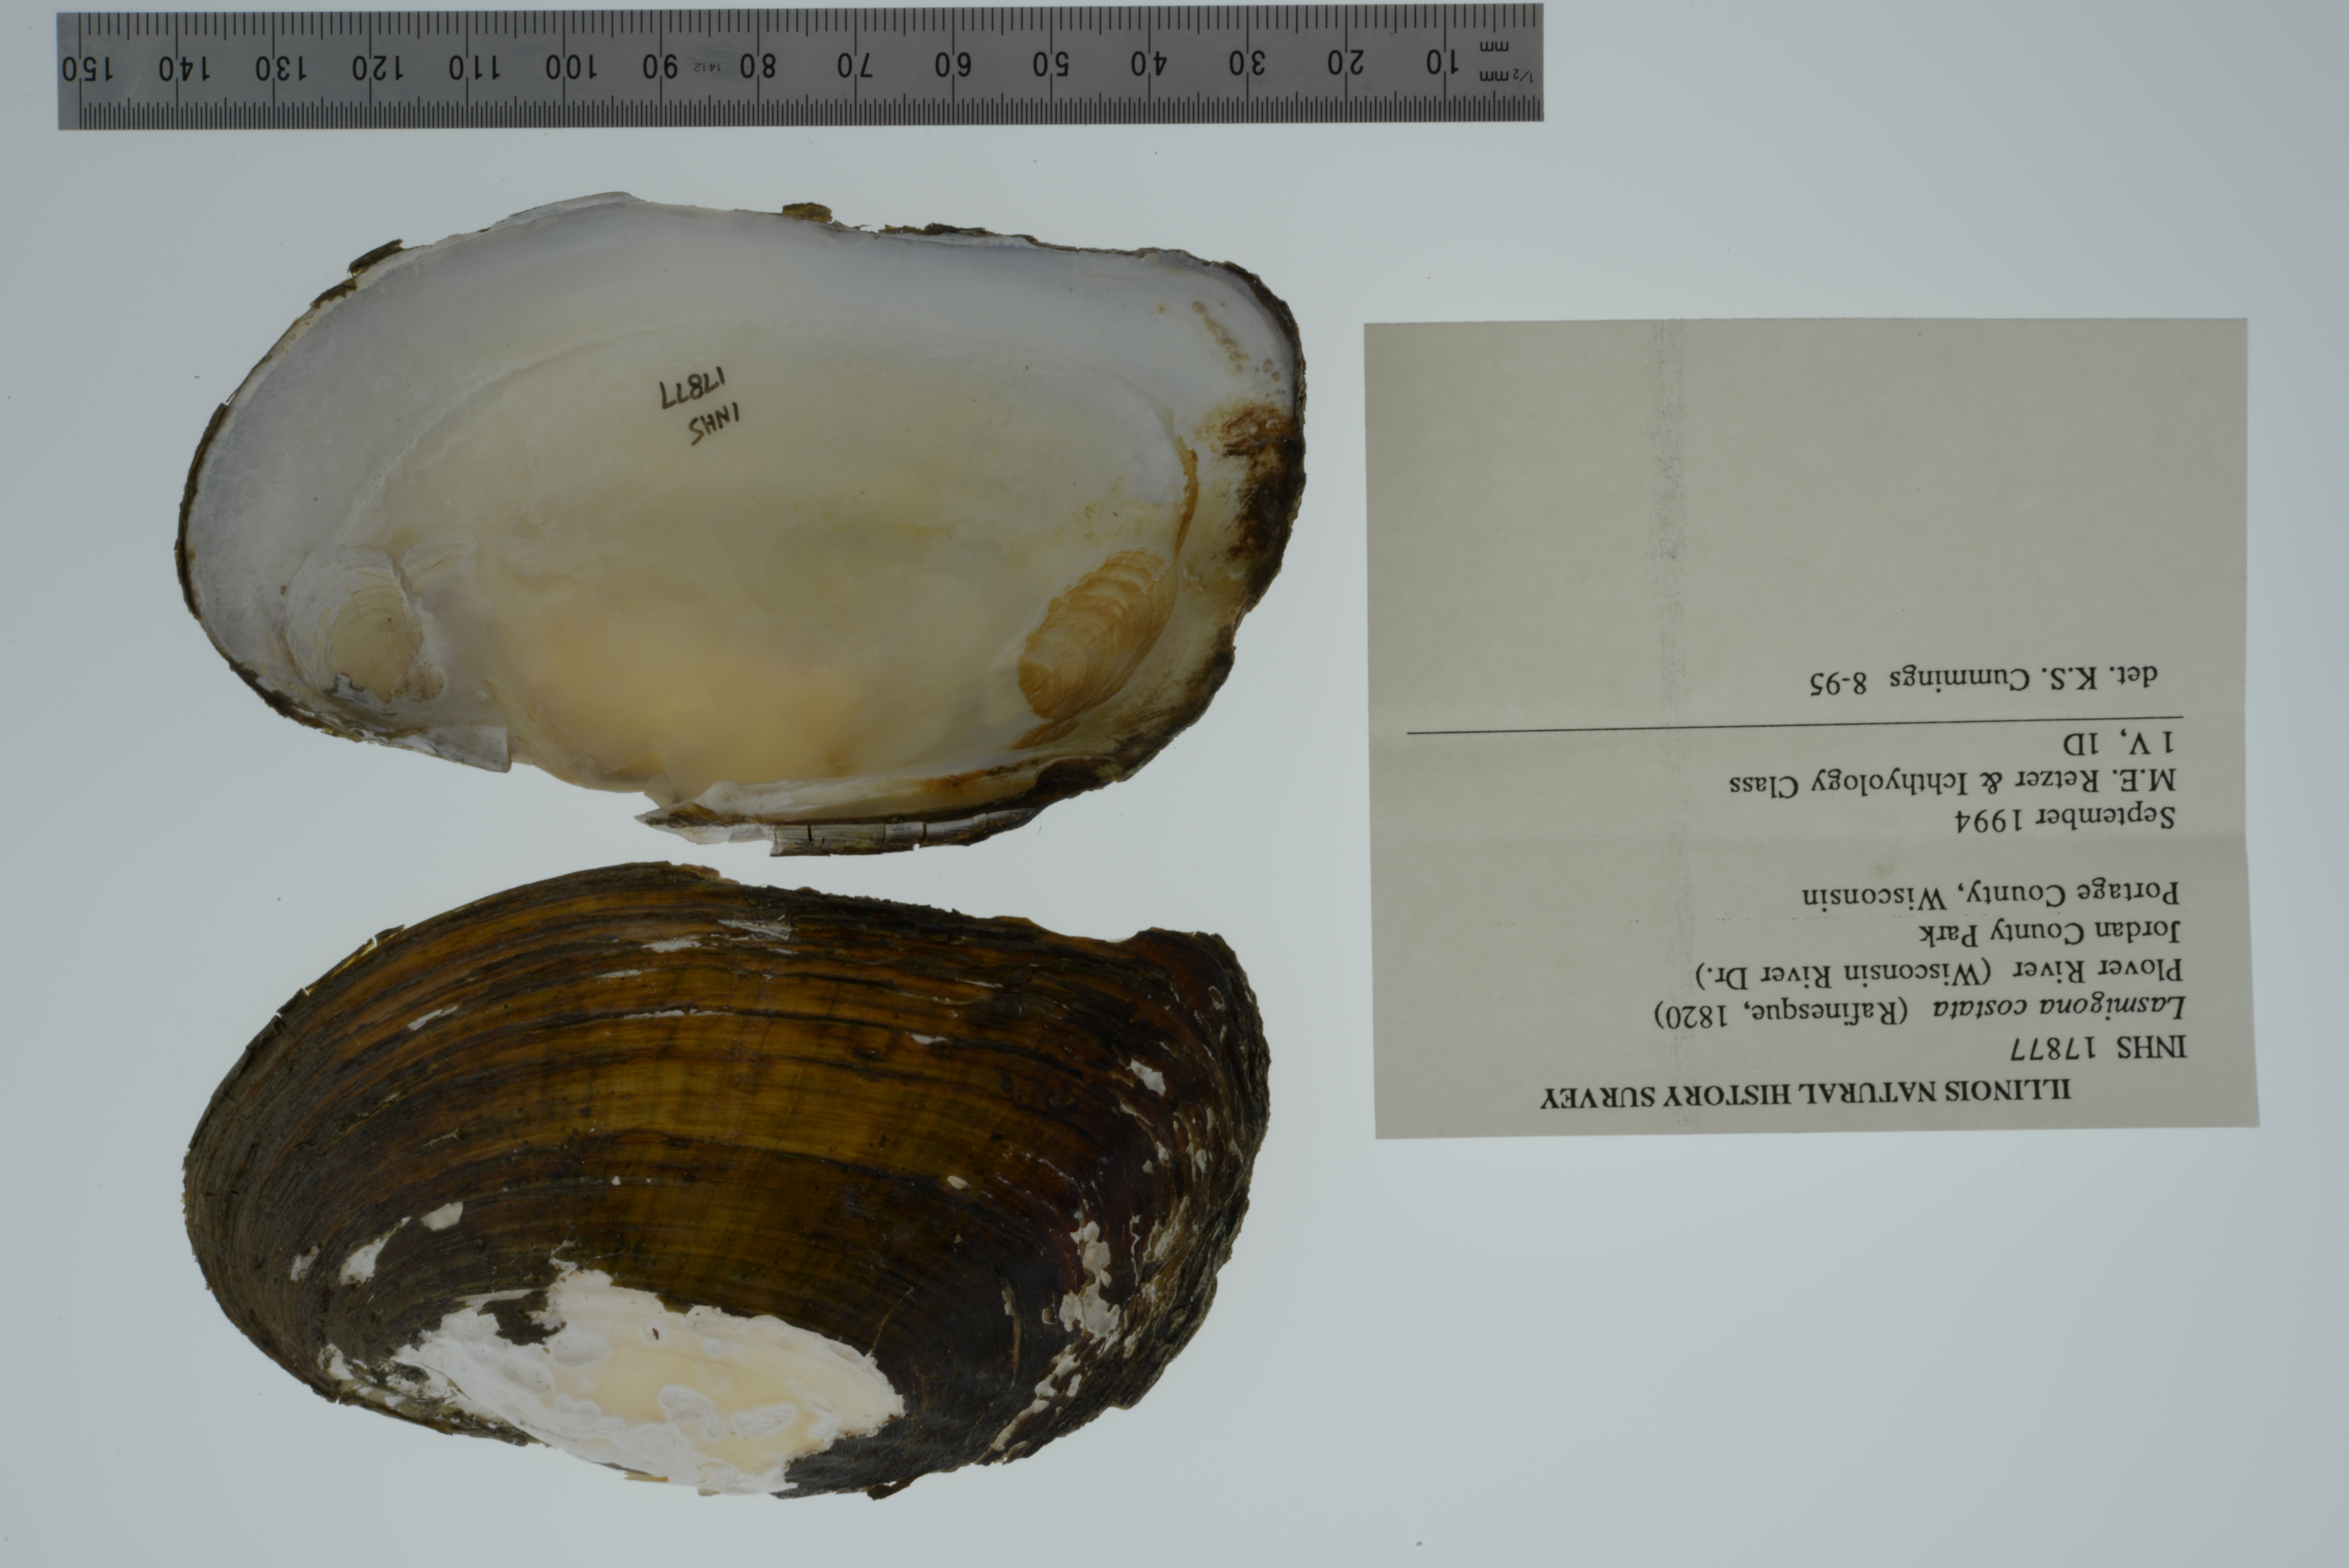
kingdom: Animalia
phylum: Mollusca
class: Bivalvia
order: Unionida
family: Unionidae
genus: Lasmigona
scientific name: Lasmigona costata
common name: Flutedshell
